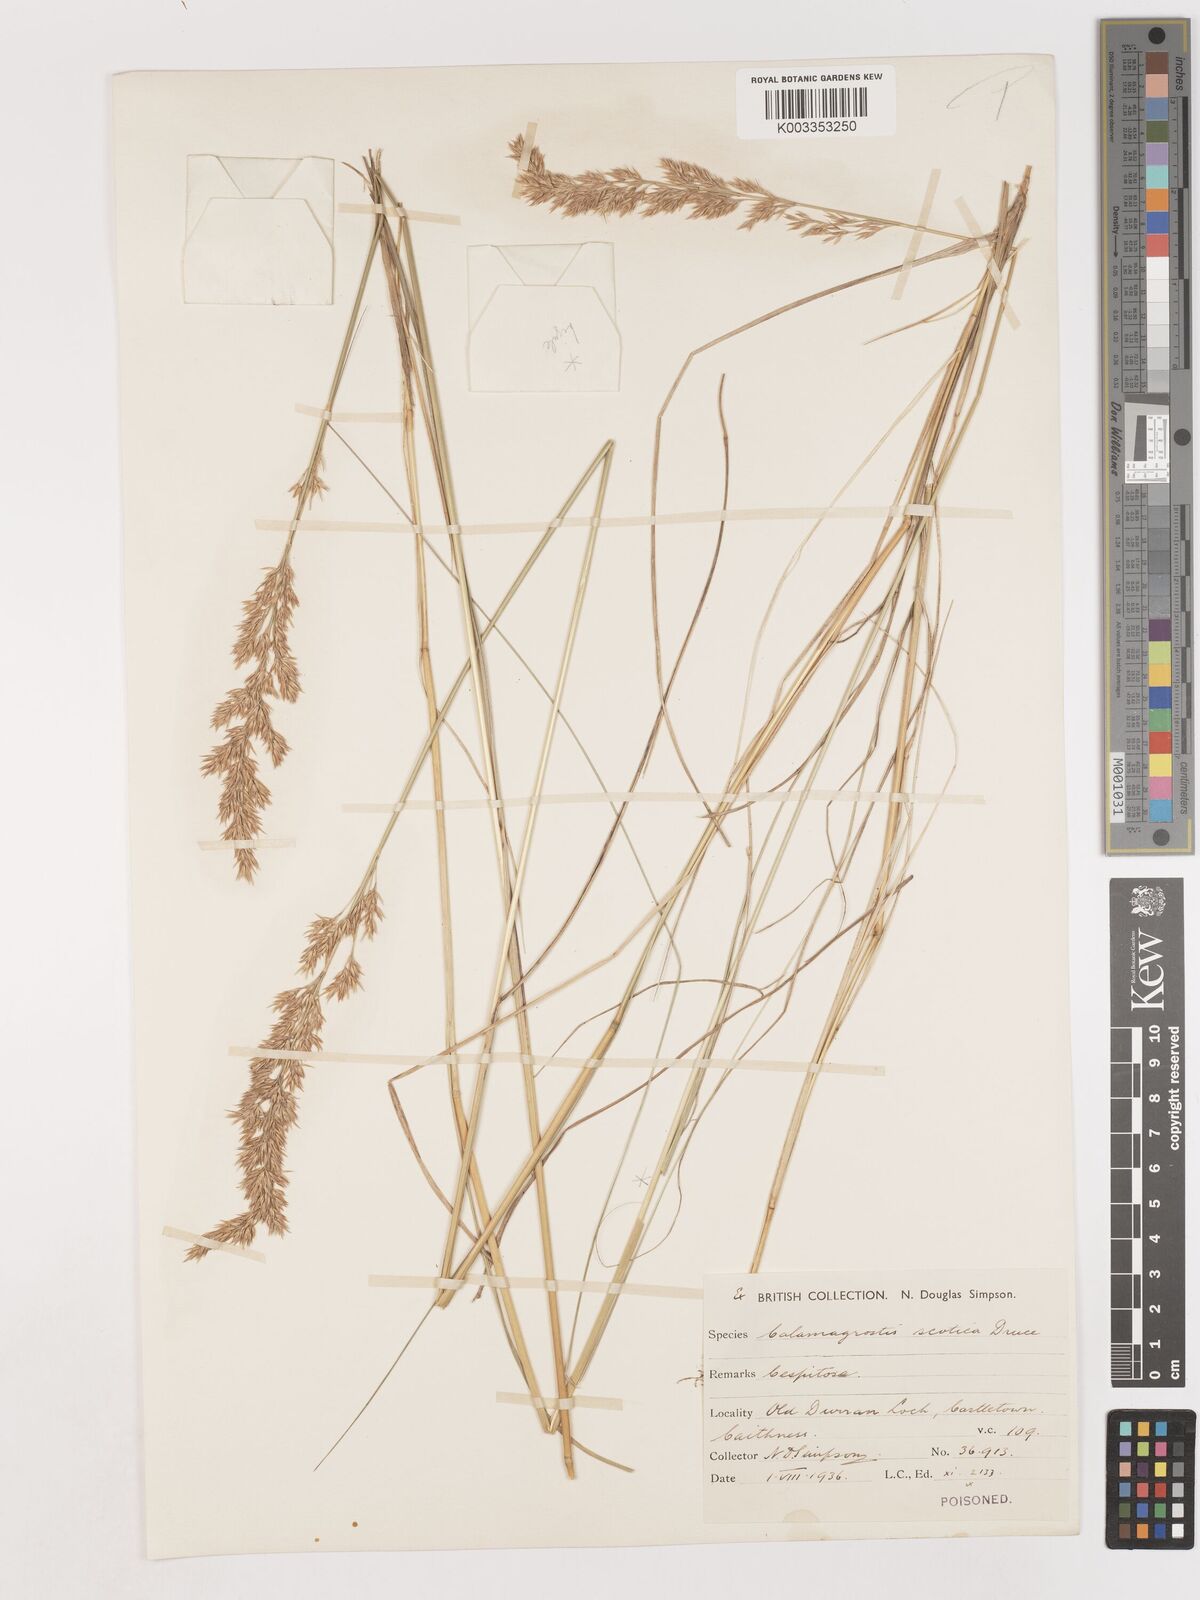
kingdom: Plantae
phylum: Tracheophyta
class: Liliopsida
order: Poales
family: Poaceae
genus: Calamagrostis
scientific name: Calamagrostis scotica
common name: Scottish small-reed
